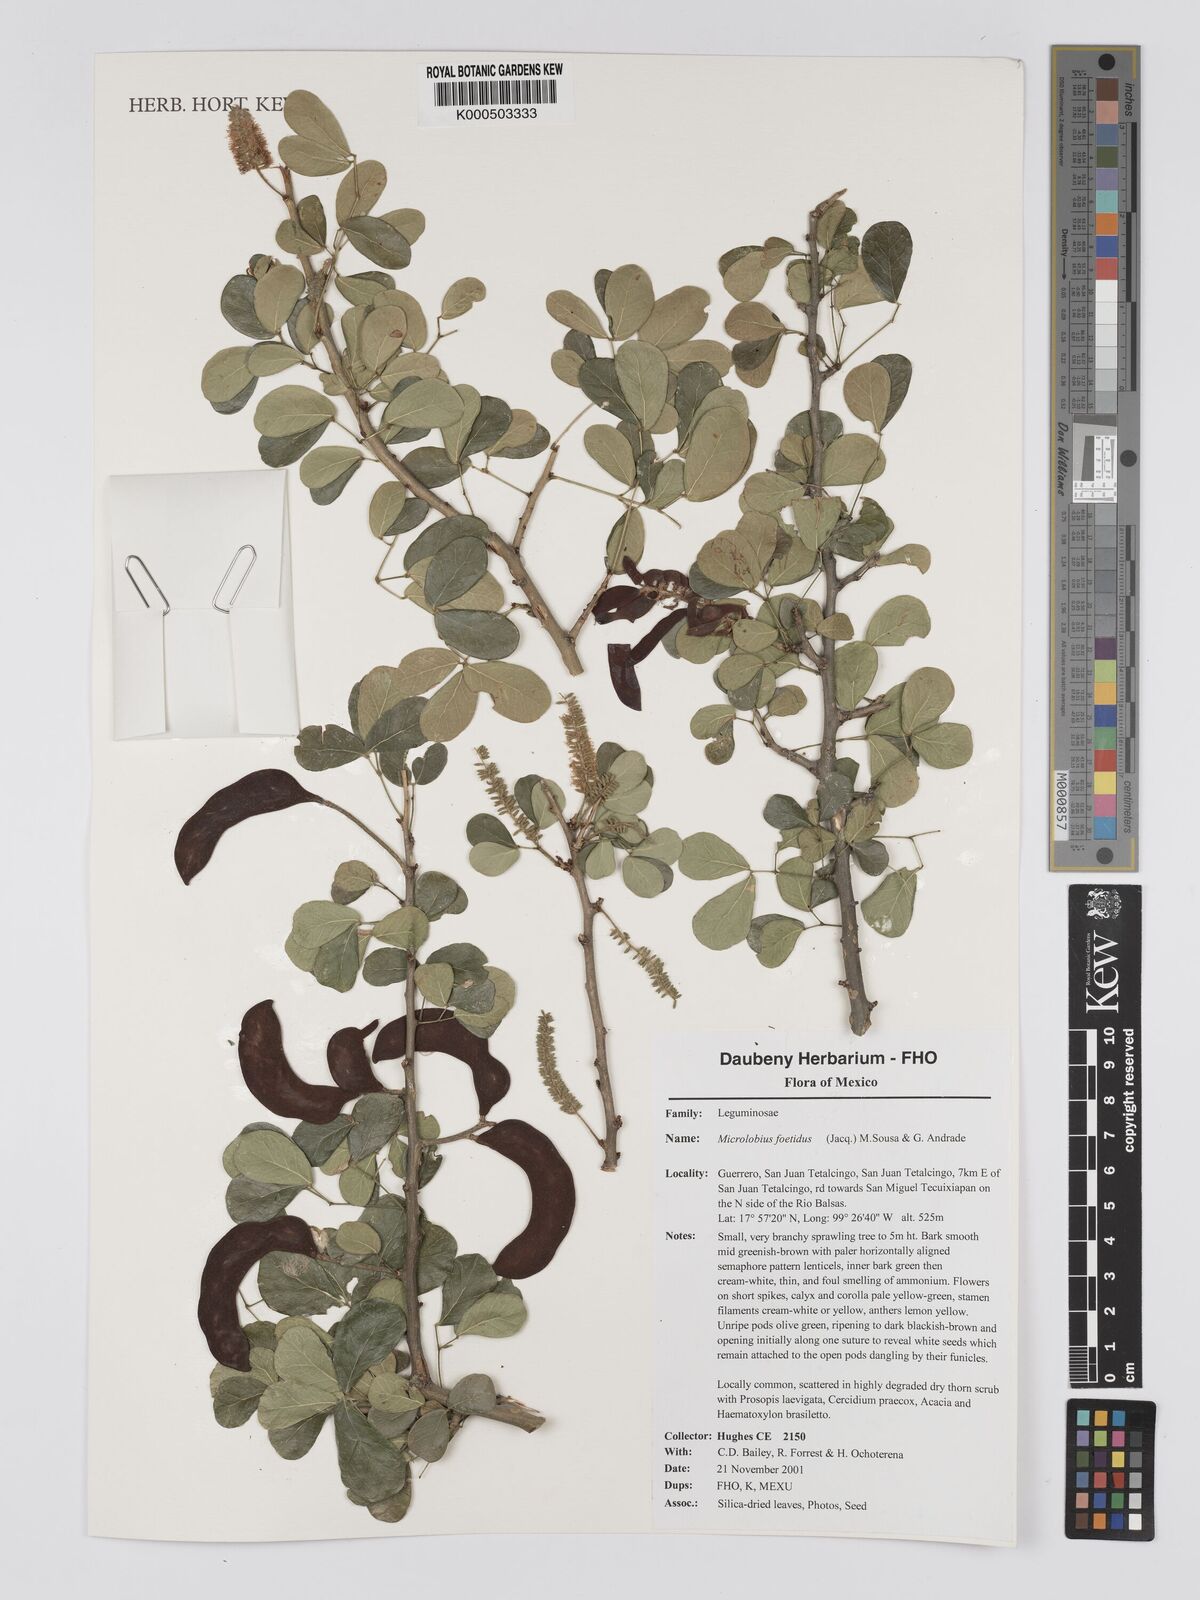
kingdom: Plantae
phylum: Tracheophyta
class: Magnoliopsida
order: Fabales
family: Fabaceae
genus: Microlobius
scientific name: Microlobius foetidus
